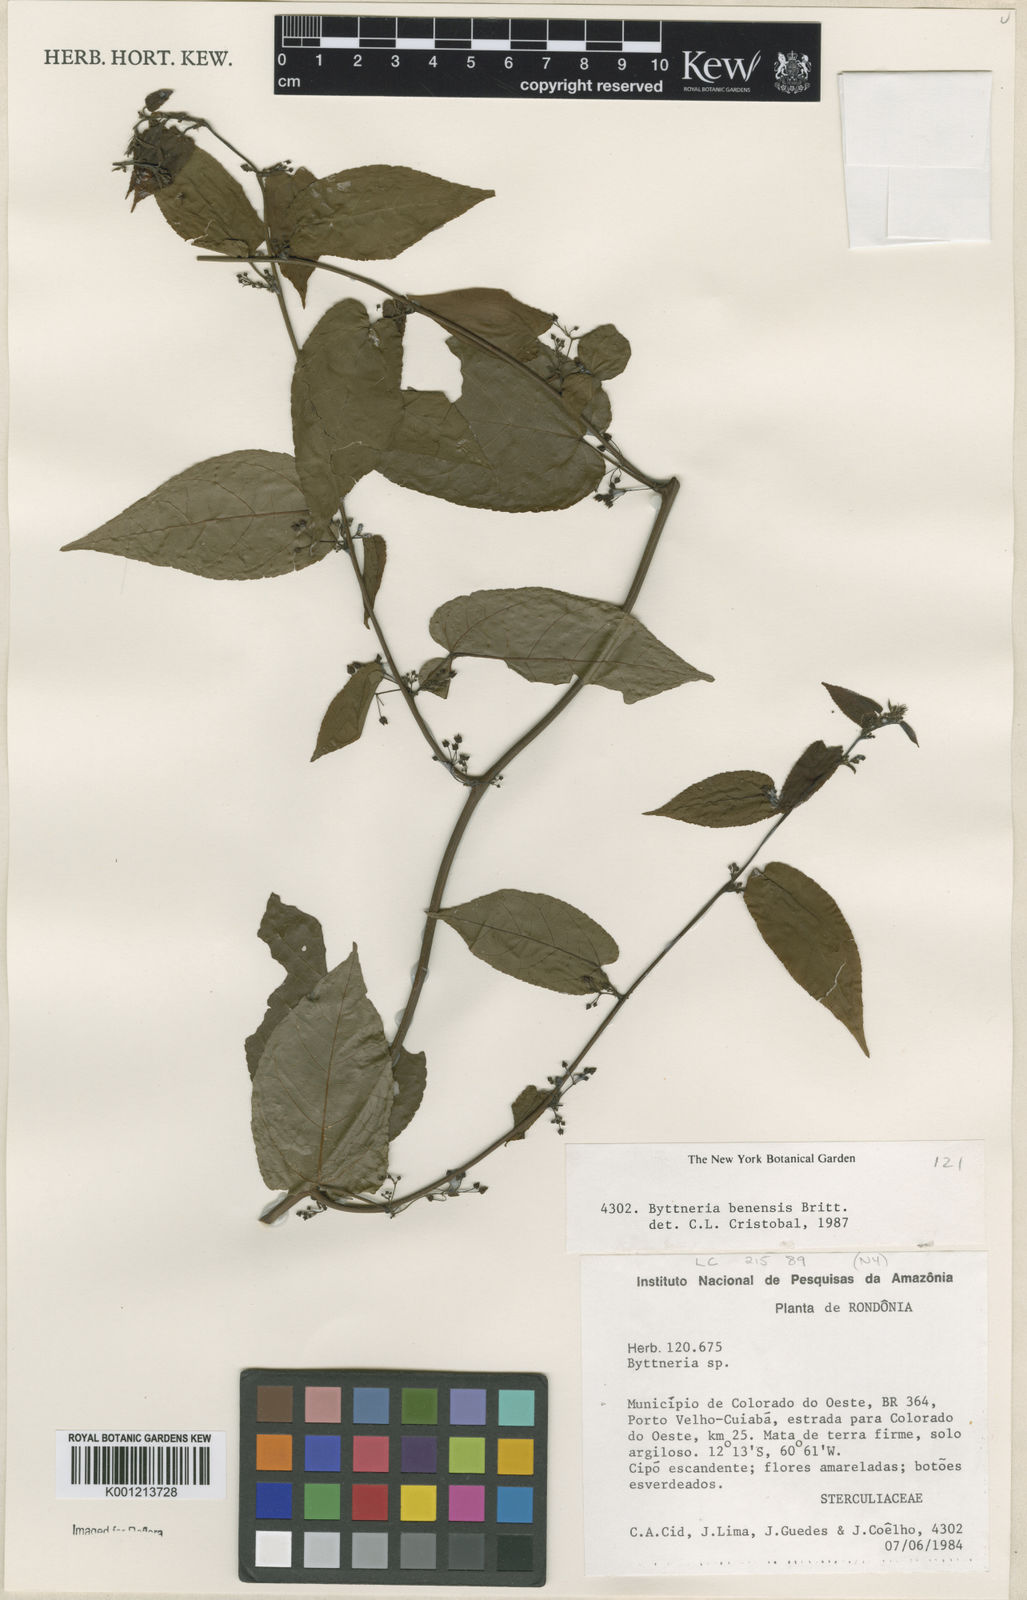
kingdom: Plantae
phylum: Tracheophyta
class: Magnoliopsida
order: Malvales
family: Malvaceae
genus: Byttneria
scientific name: Byttneria benensis
